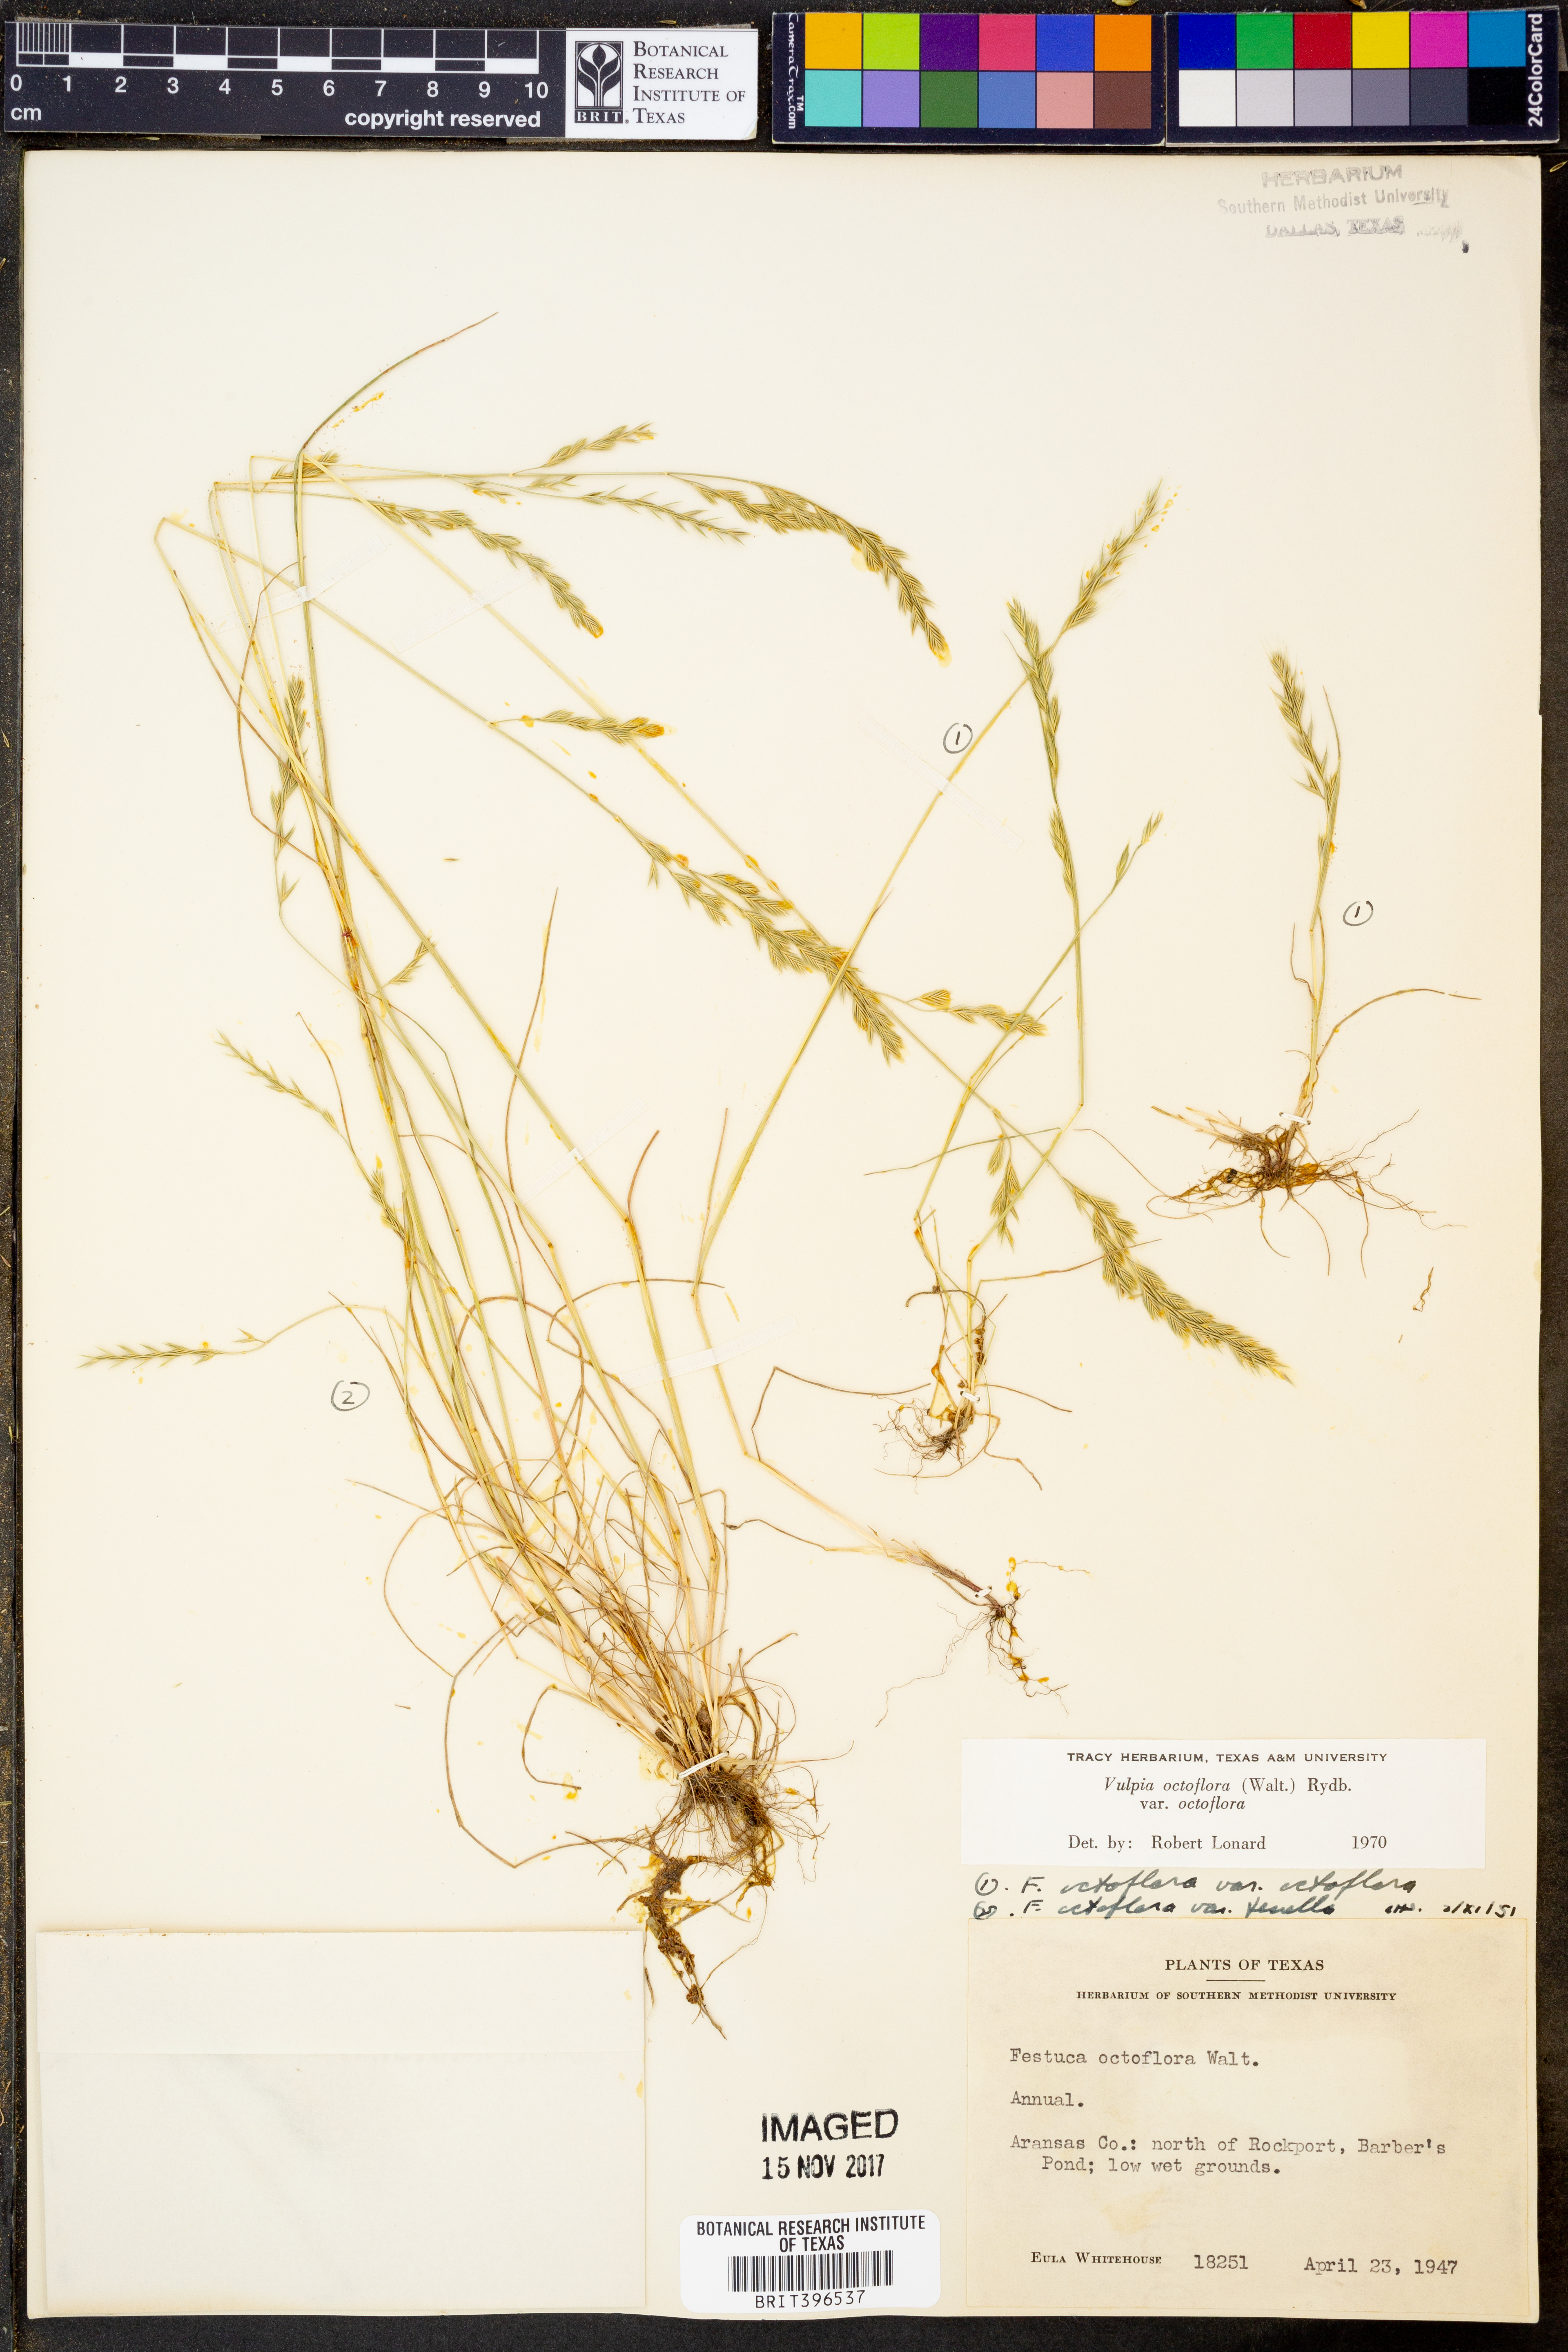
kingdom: Plantae
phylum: Tracheophyta
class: Liliopsida
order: Poales
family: Poaceae
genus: Festuca
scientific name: Festuca octoflora
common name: Sixweeks grass
